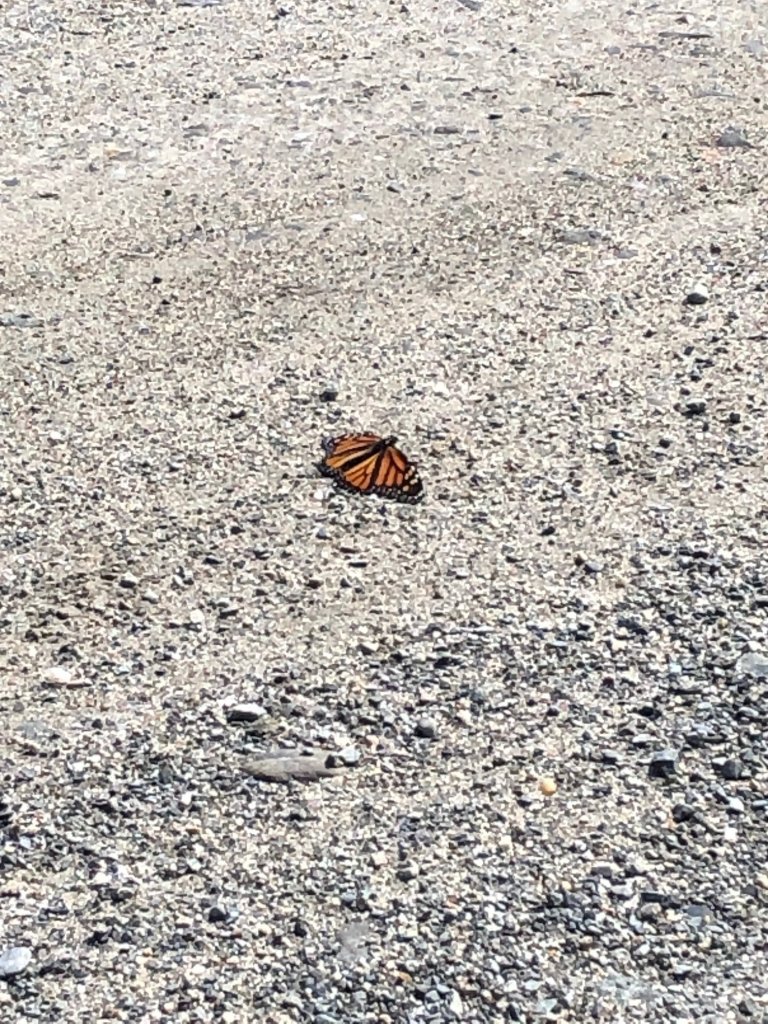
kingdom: Animalia
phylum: Arthropoda
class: Insecta
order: Lepidoptera
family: Nymphalidae
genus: Danaus
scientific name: Danaus plexippus
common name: Monarch
